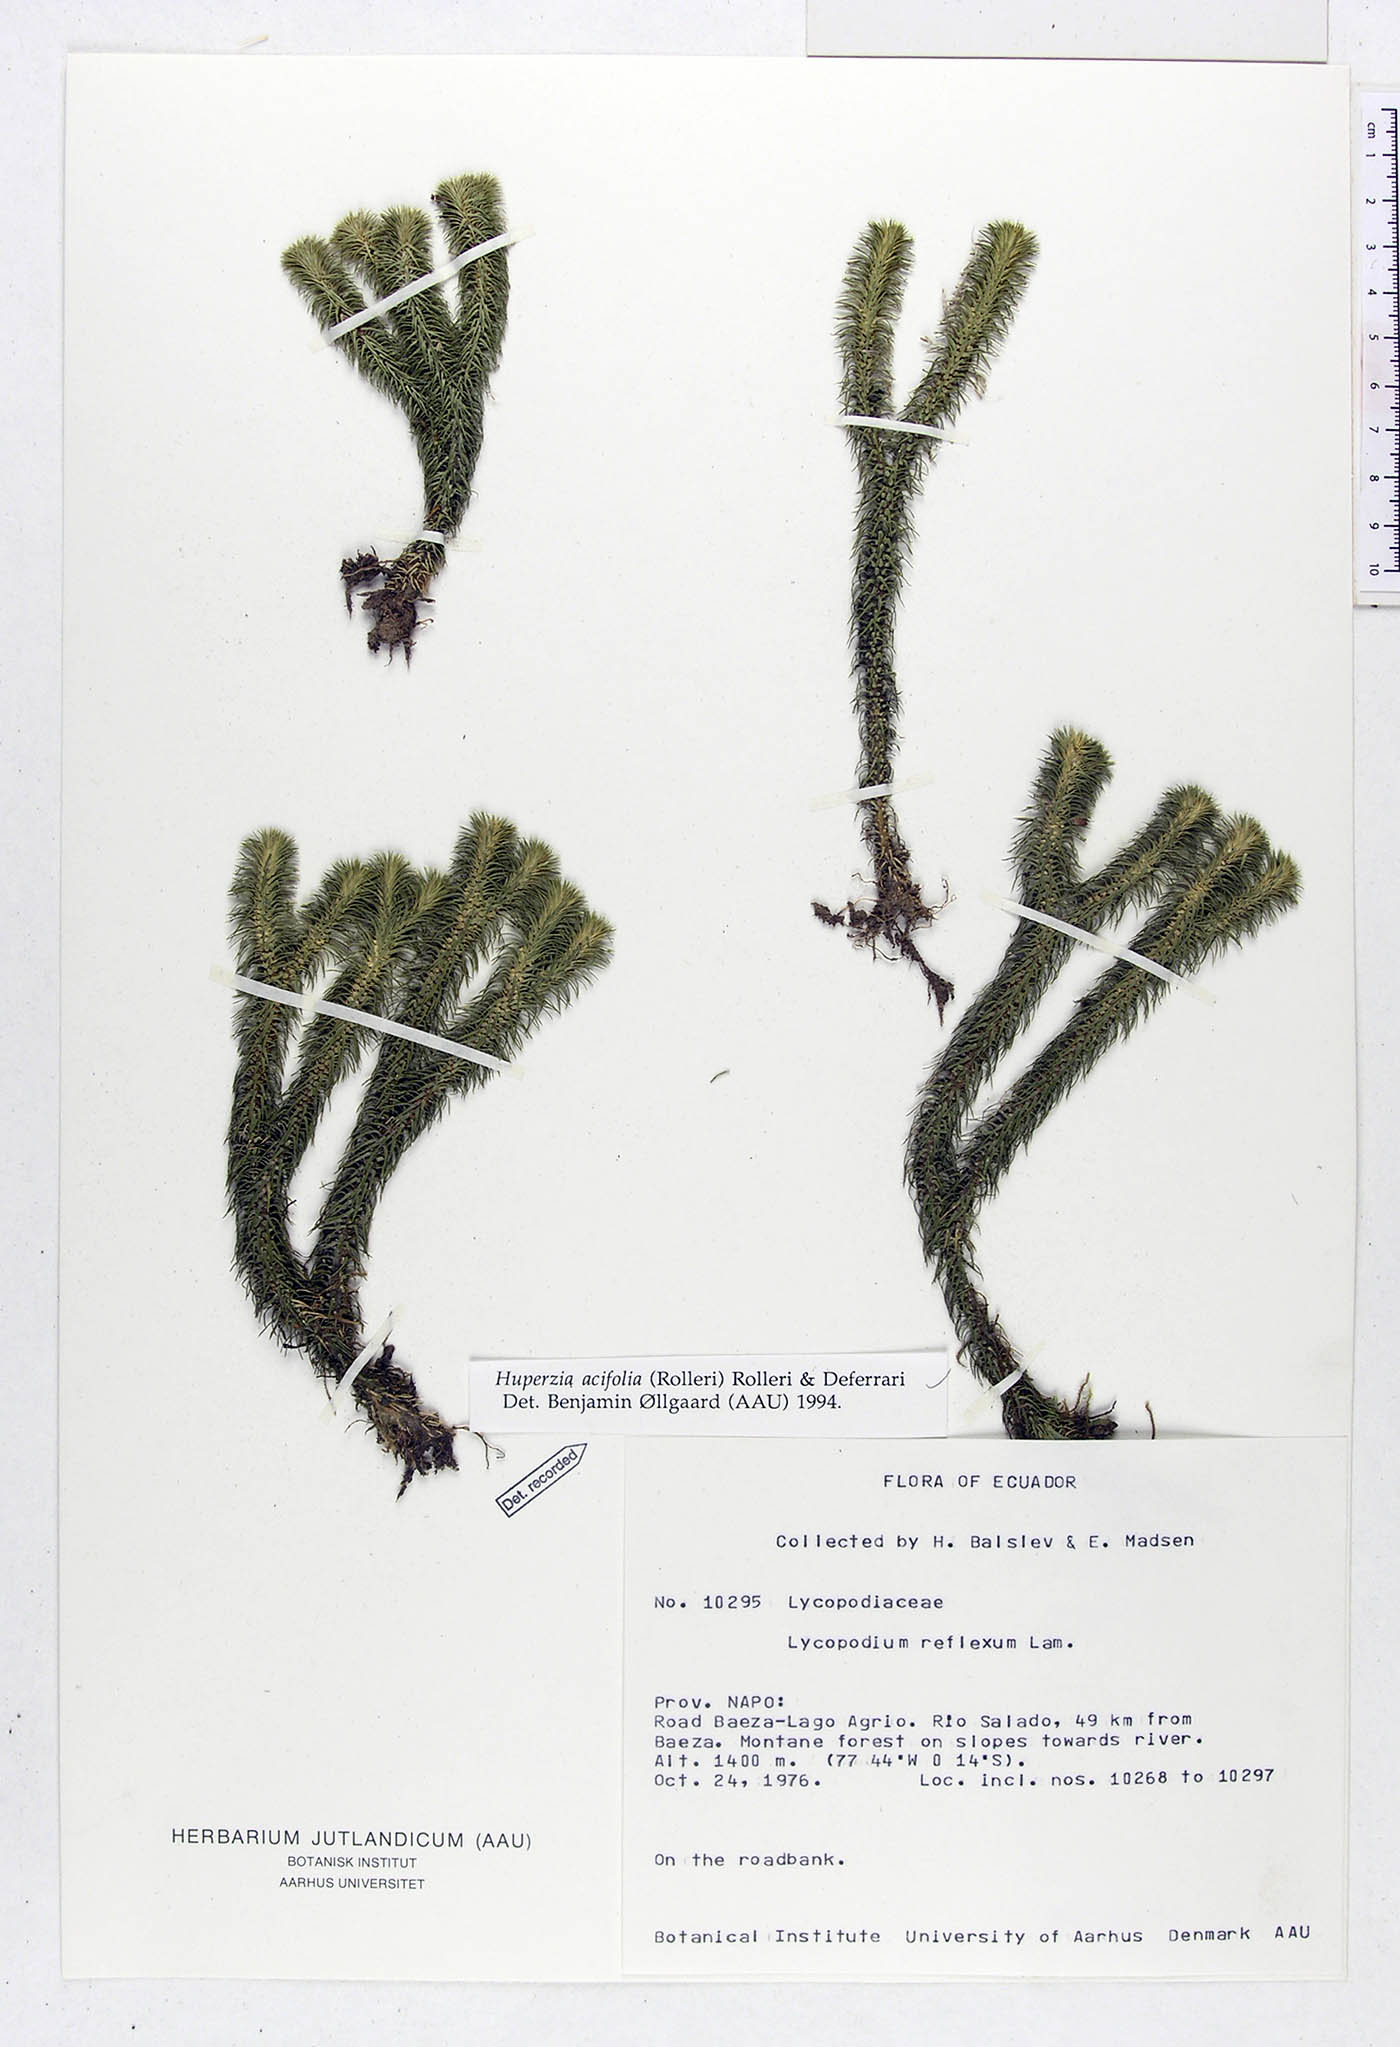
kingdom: Plantae
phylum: Tracheophyta
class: Lycopodiopsida
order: Lycopodiales
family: Lycopodiaceae
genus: Phlegmariurus
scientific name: Phlegmariurus acifolius
